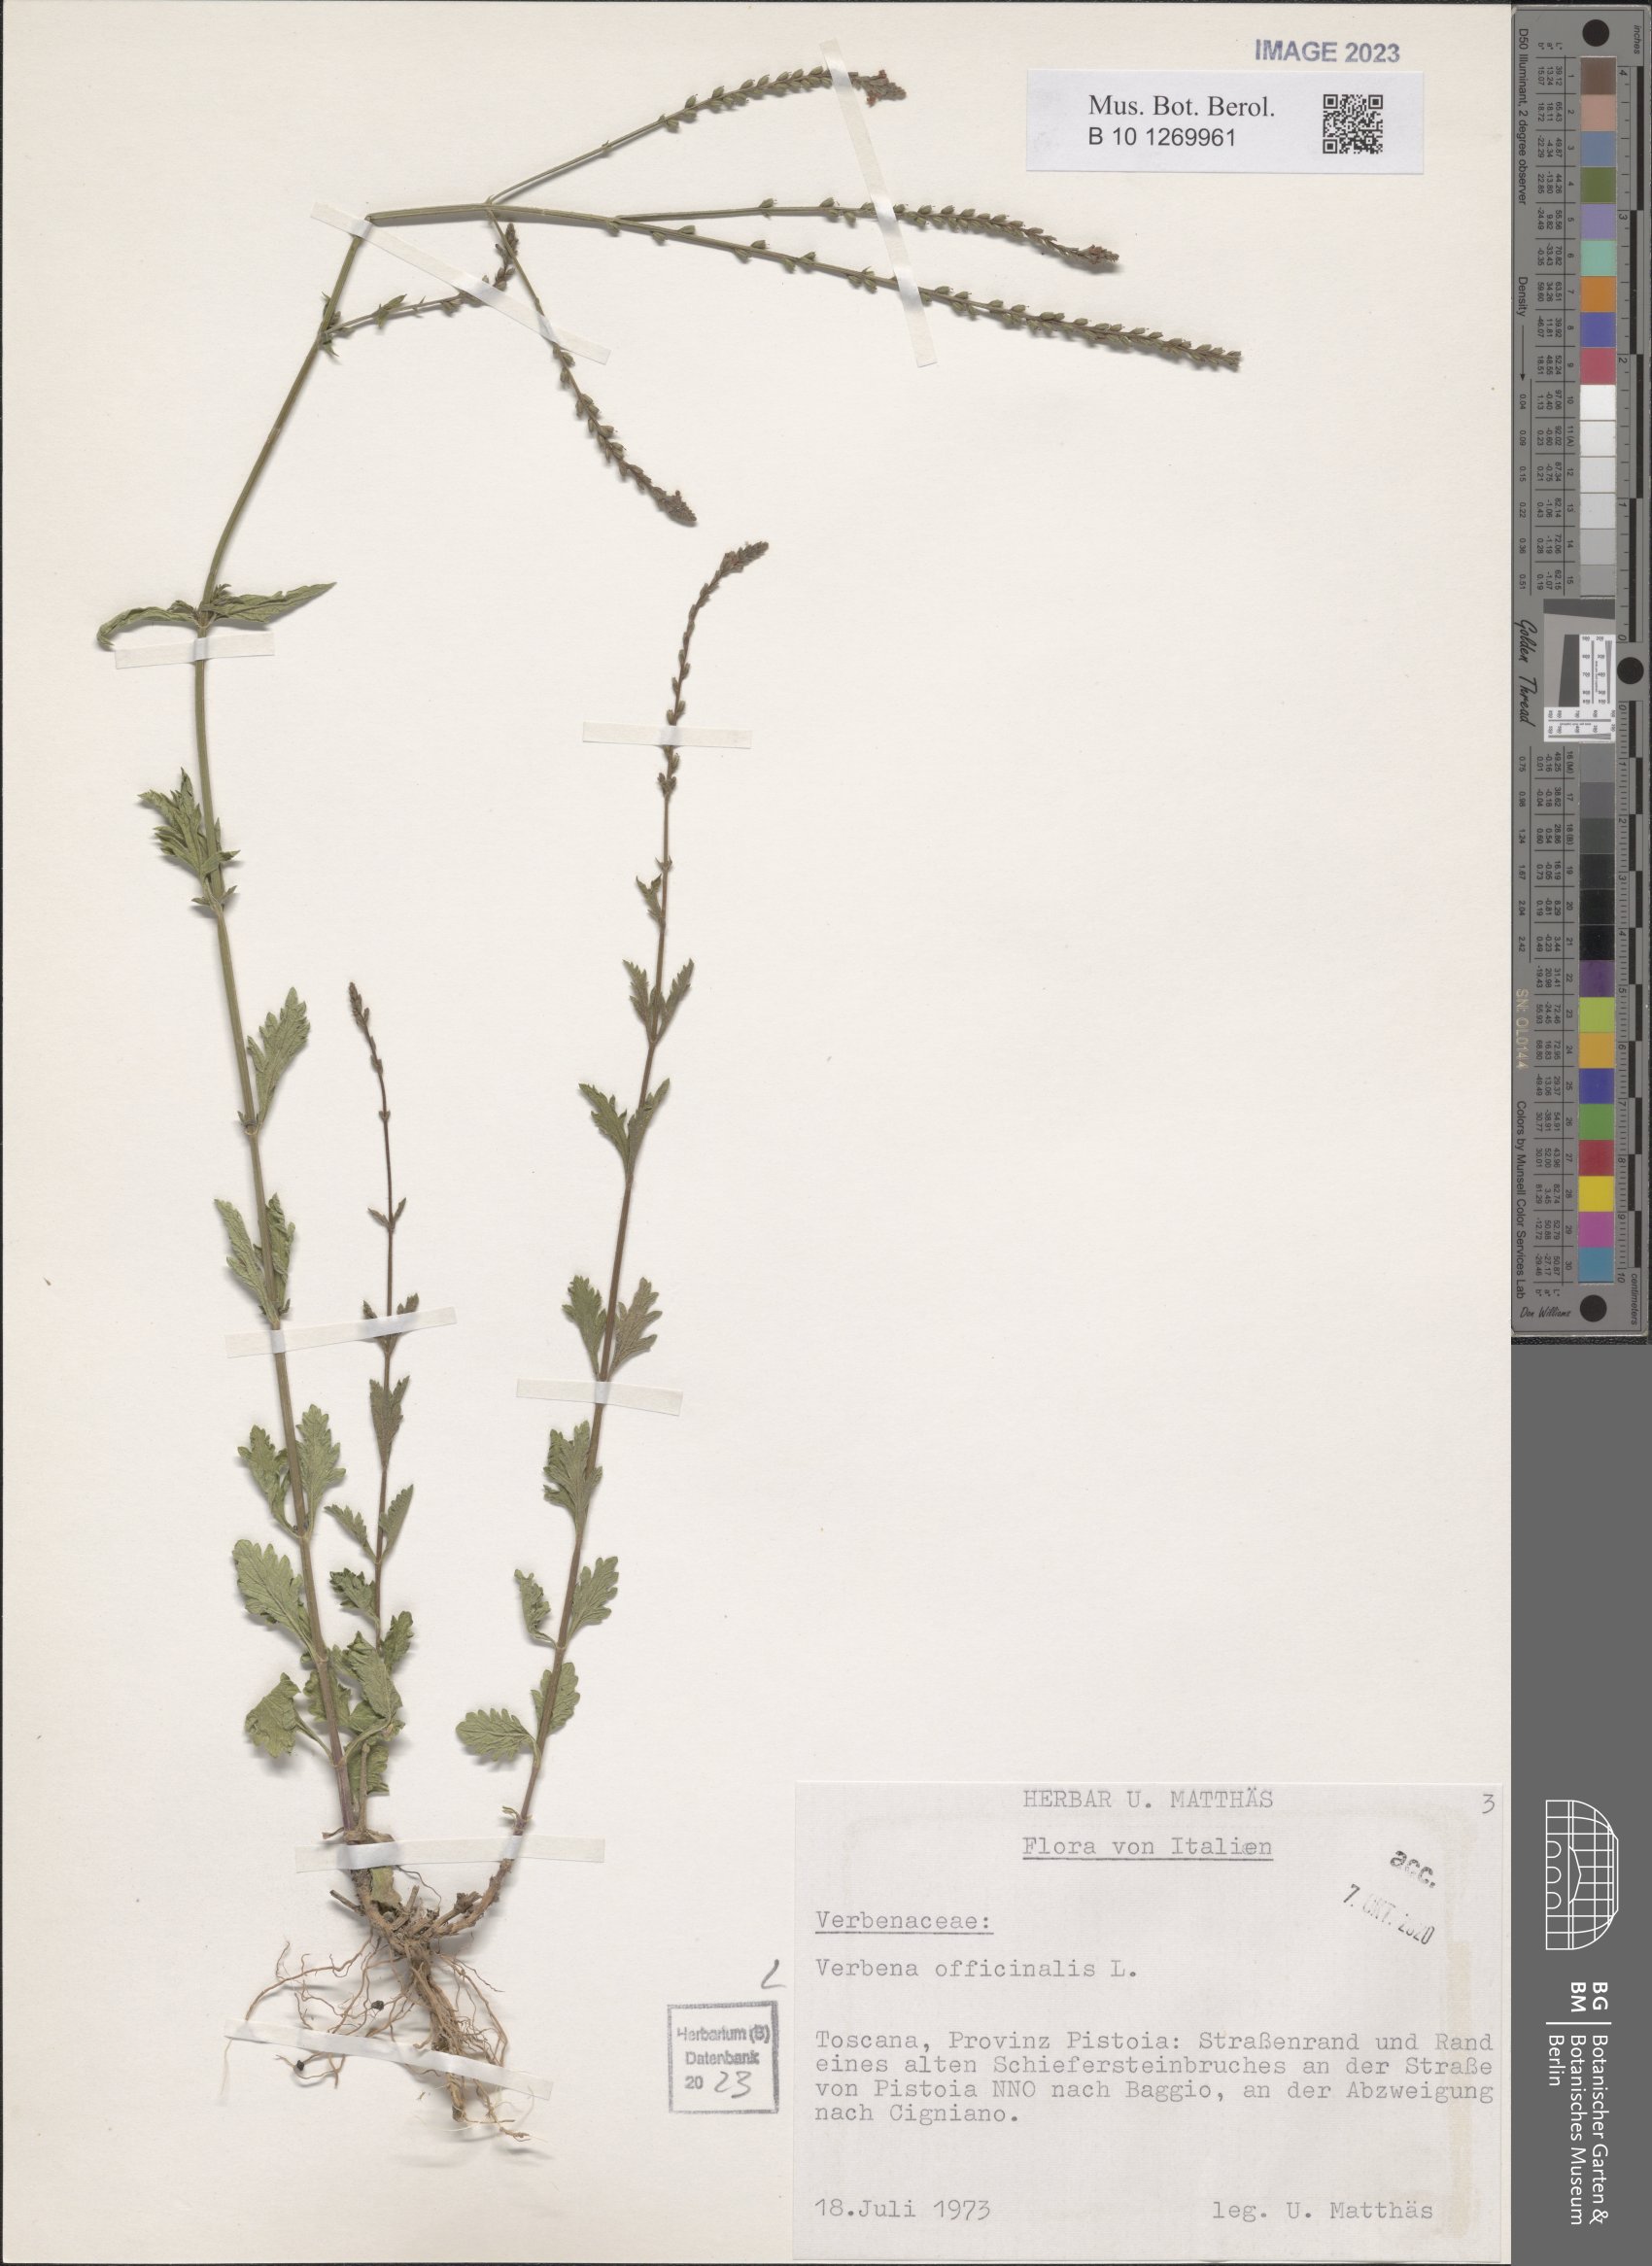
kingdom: Plantae
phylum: Tracheophyta
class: Magnoliopsida
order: Lamiales
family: Verbenaceae
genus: Verbena
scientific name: Verbena officinalis
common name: Vervain
